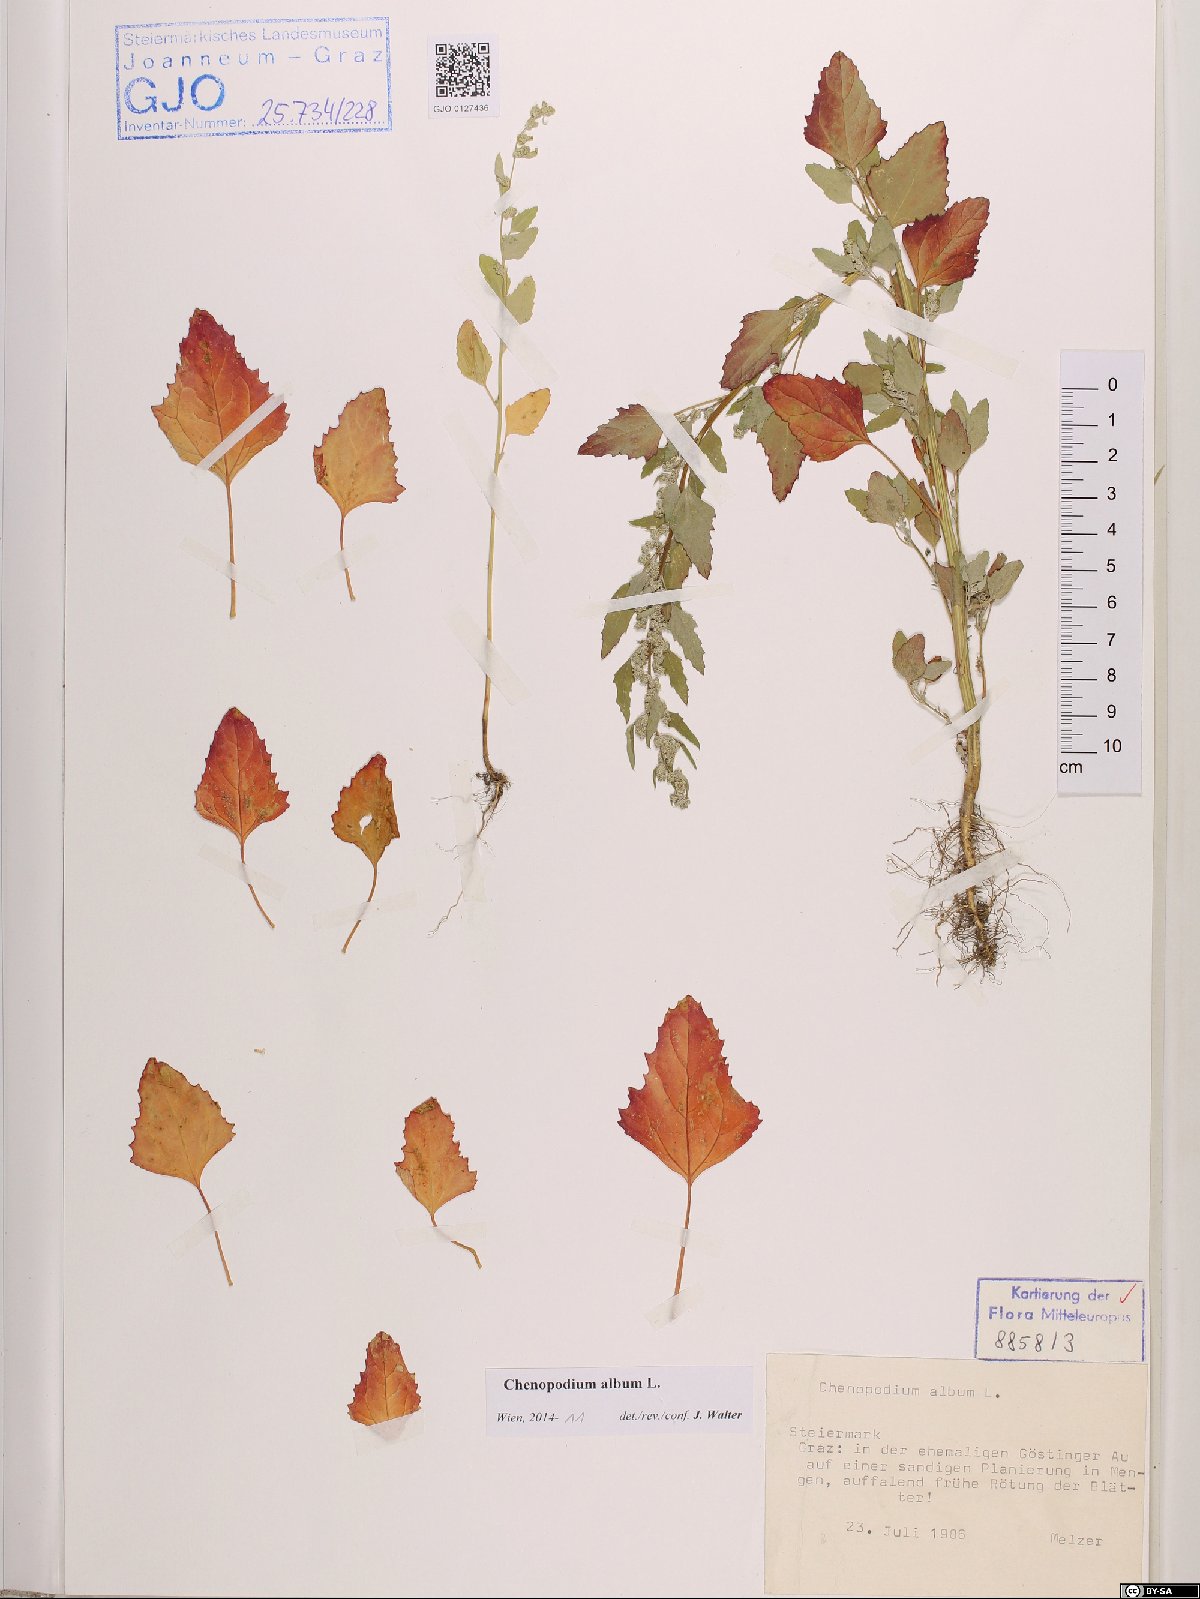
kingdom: Plantae
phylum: Tracheophyta
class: Magnoliopsida
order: Caryophyllales
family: Amaranthaceae
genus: Chenopodium
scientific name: Chenopodium album
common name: Fat-hen
